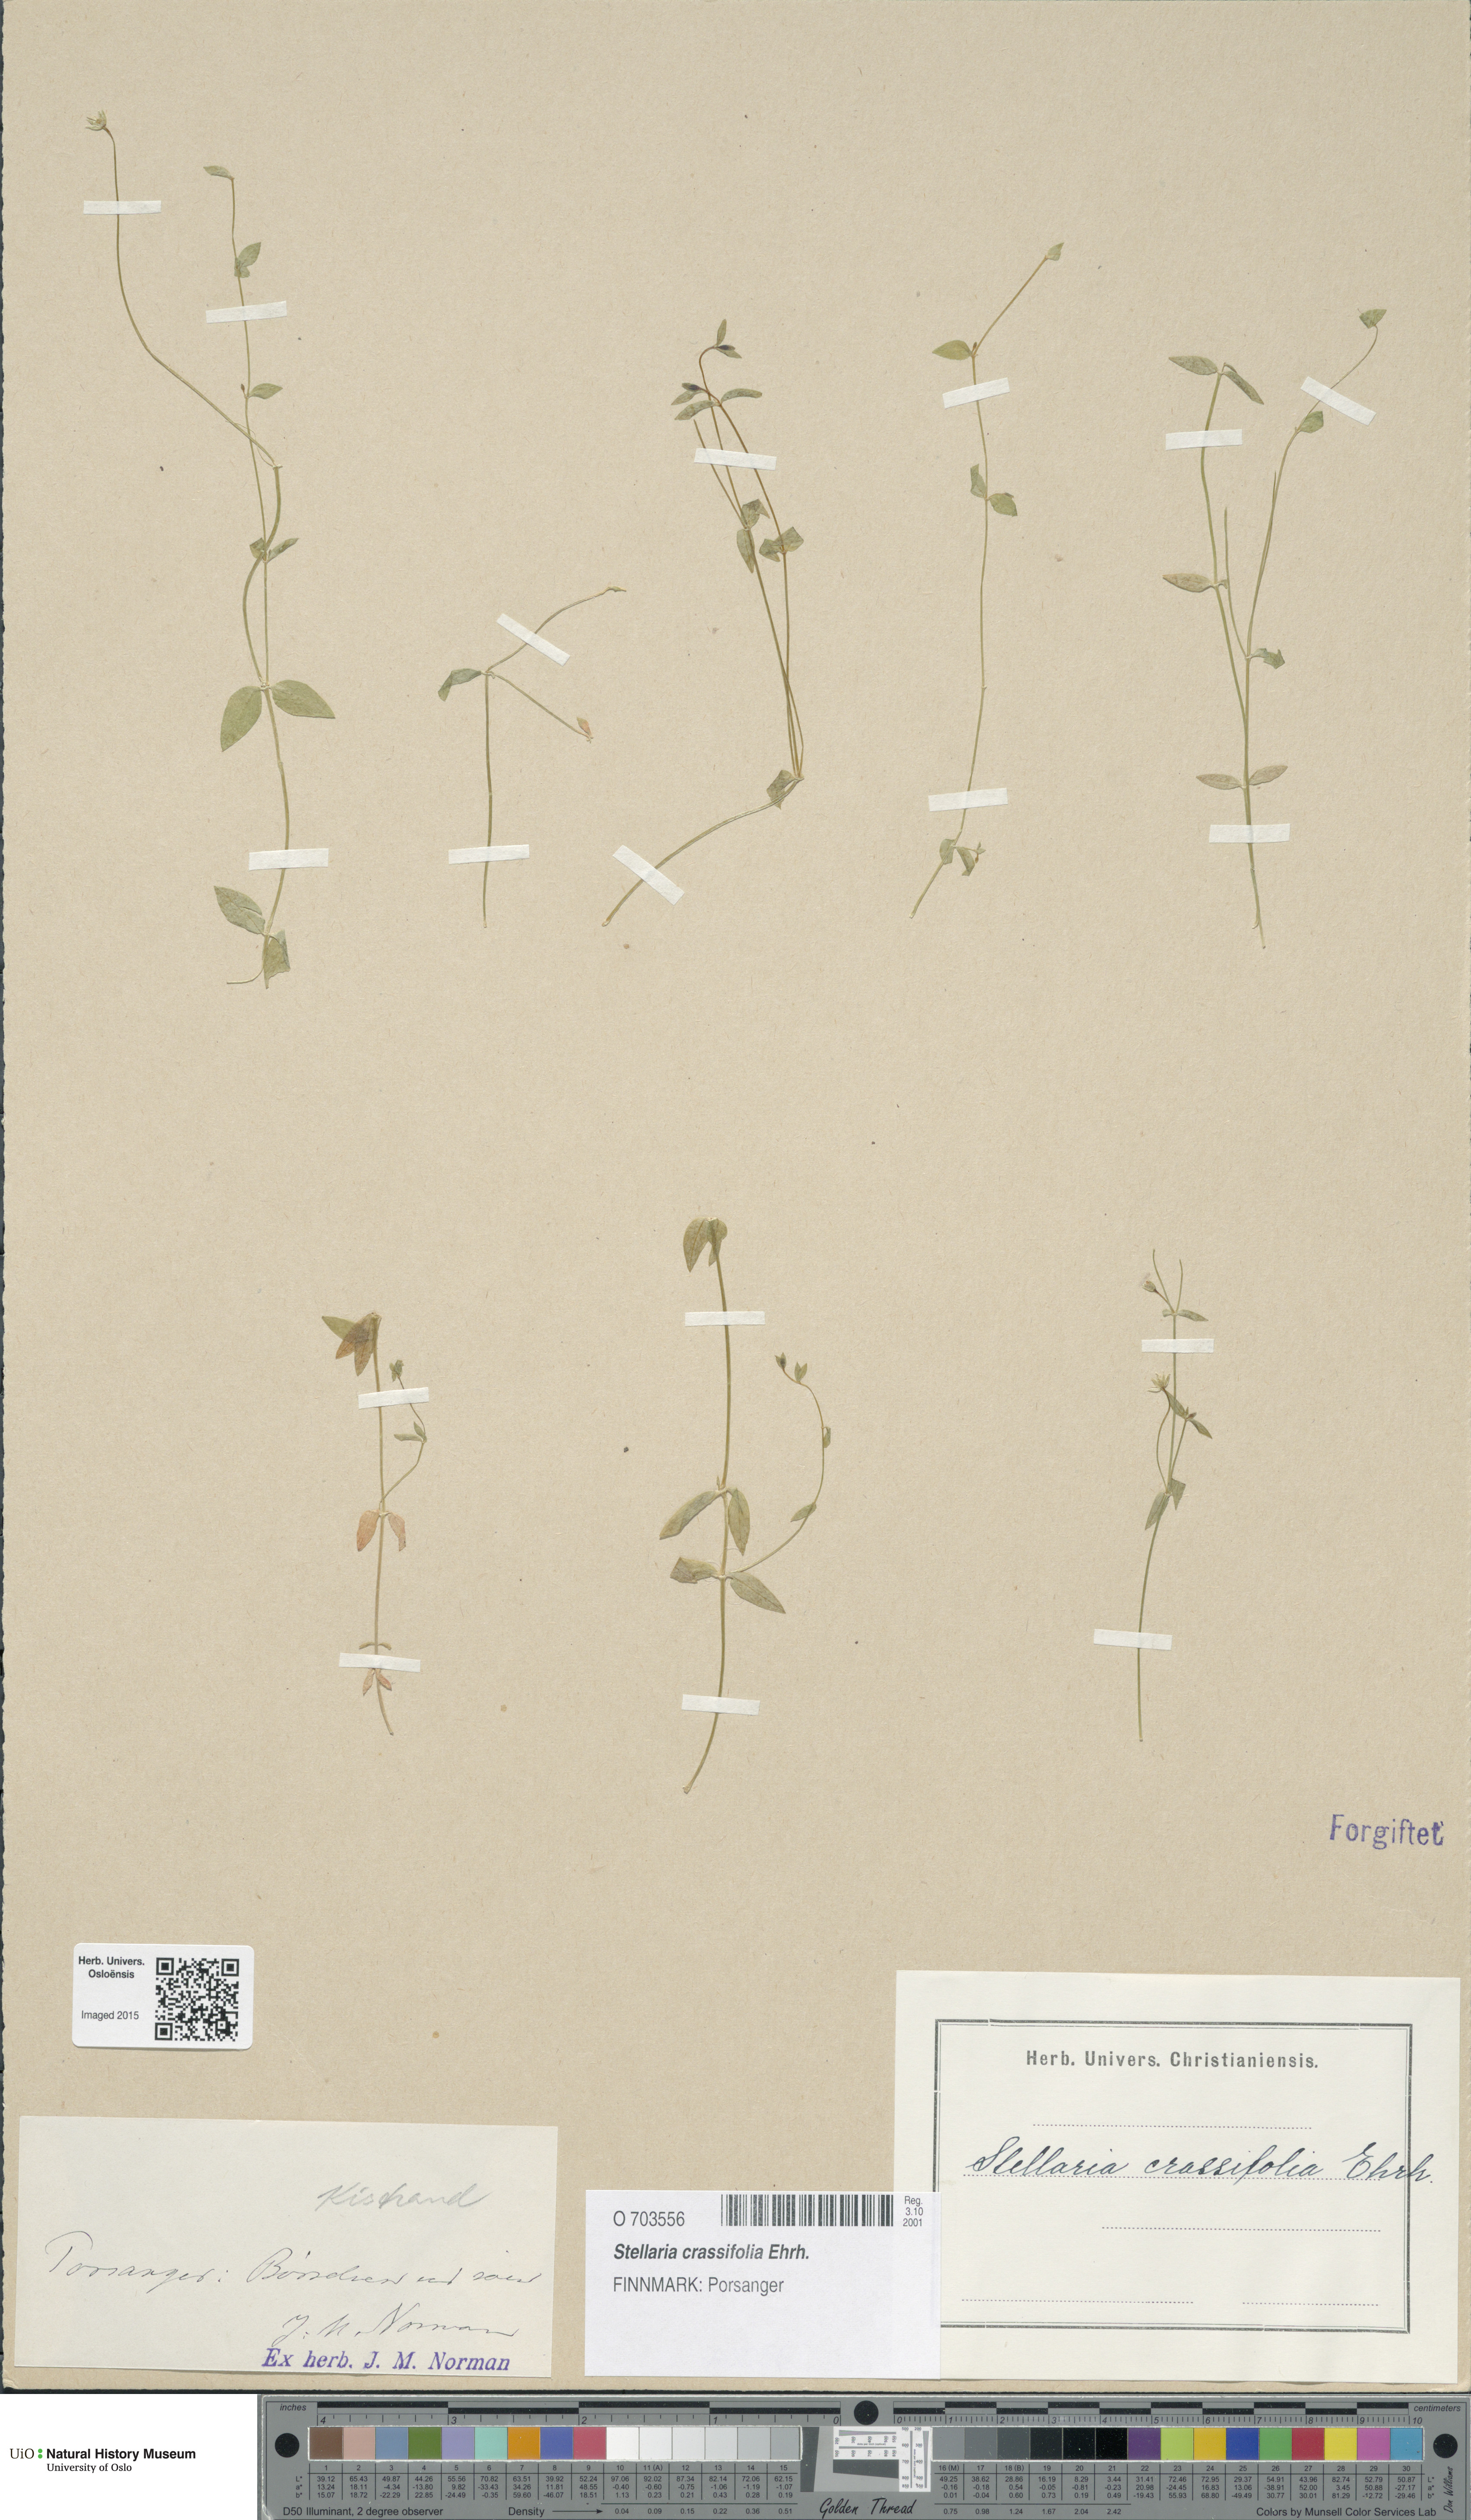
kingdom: Plantae
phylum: Tracheophyta
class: Magnoliopsida
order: Caryophyllales
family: Caryophyllaceae
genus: Stellaria
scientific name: Stellaria crassifolia
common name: Fleshy starwort
